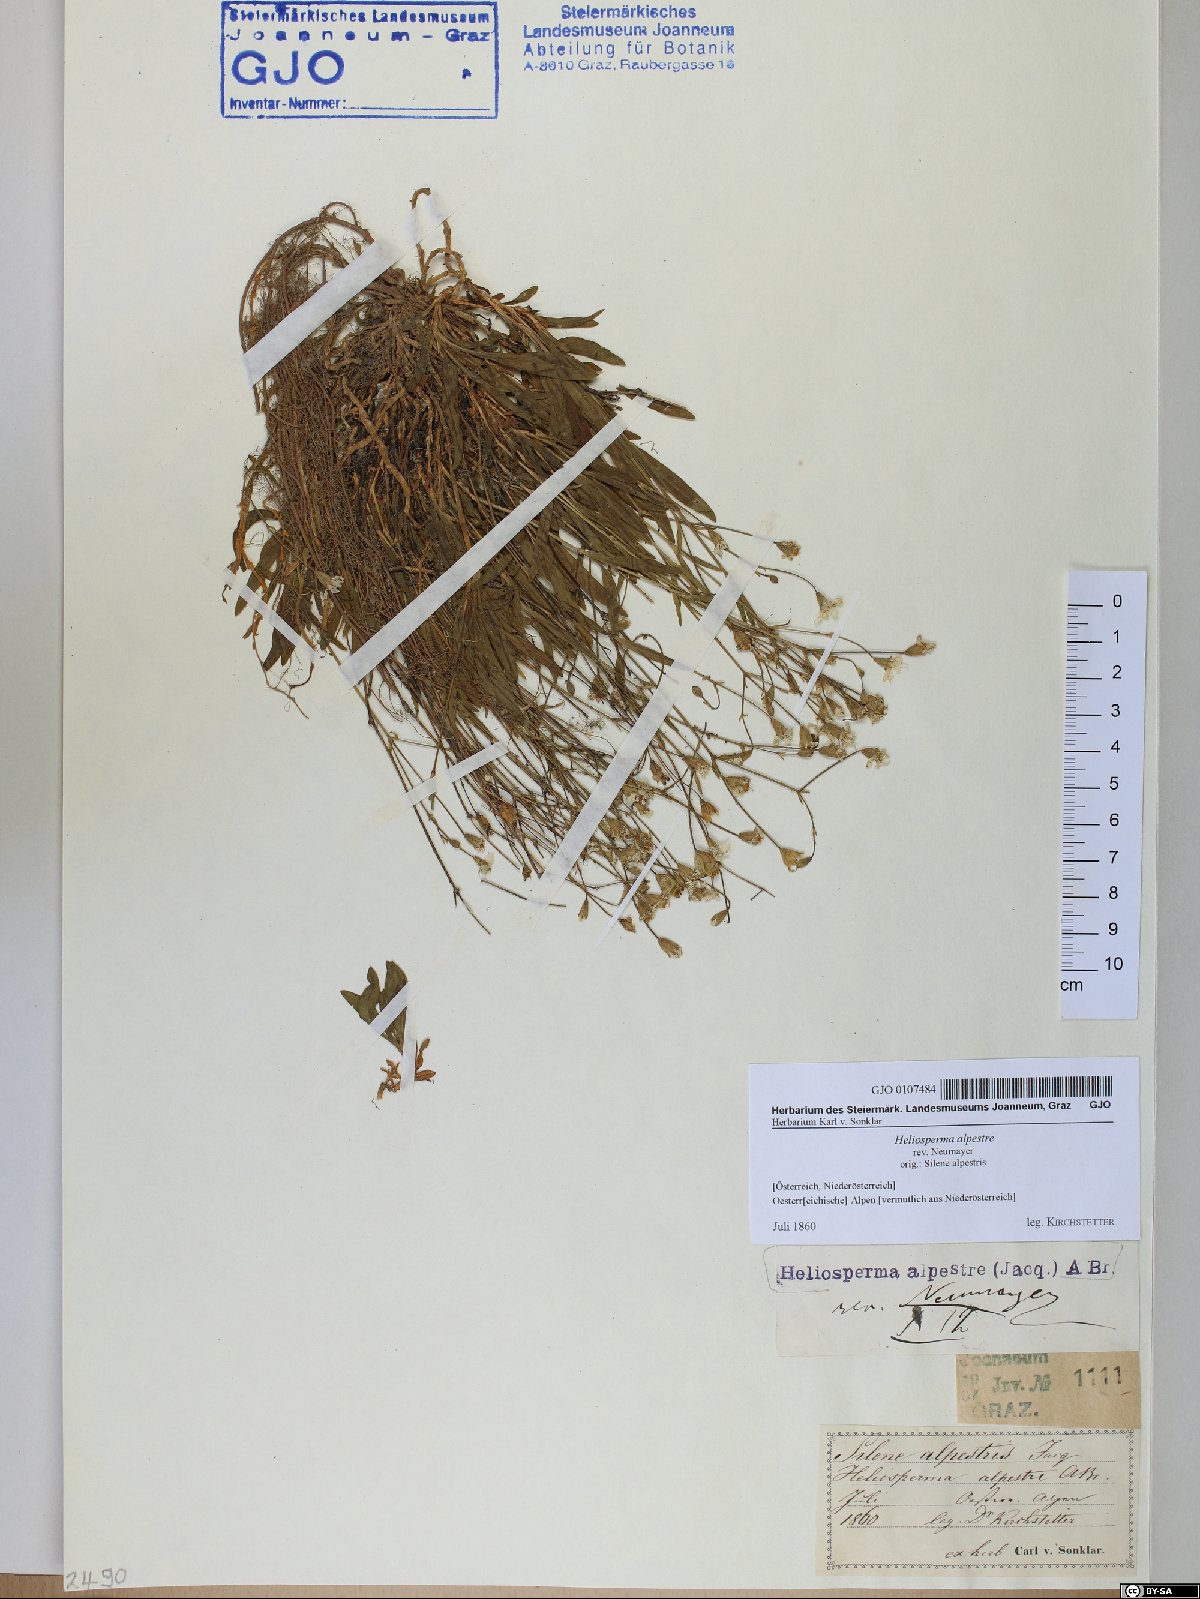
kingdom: Plantae
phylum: Tracheophyta
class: Magnoliopsida
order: Caryophyllales
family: Caryophyllaceae
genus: Heliosperma
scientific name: Heliosperma alpestre
